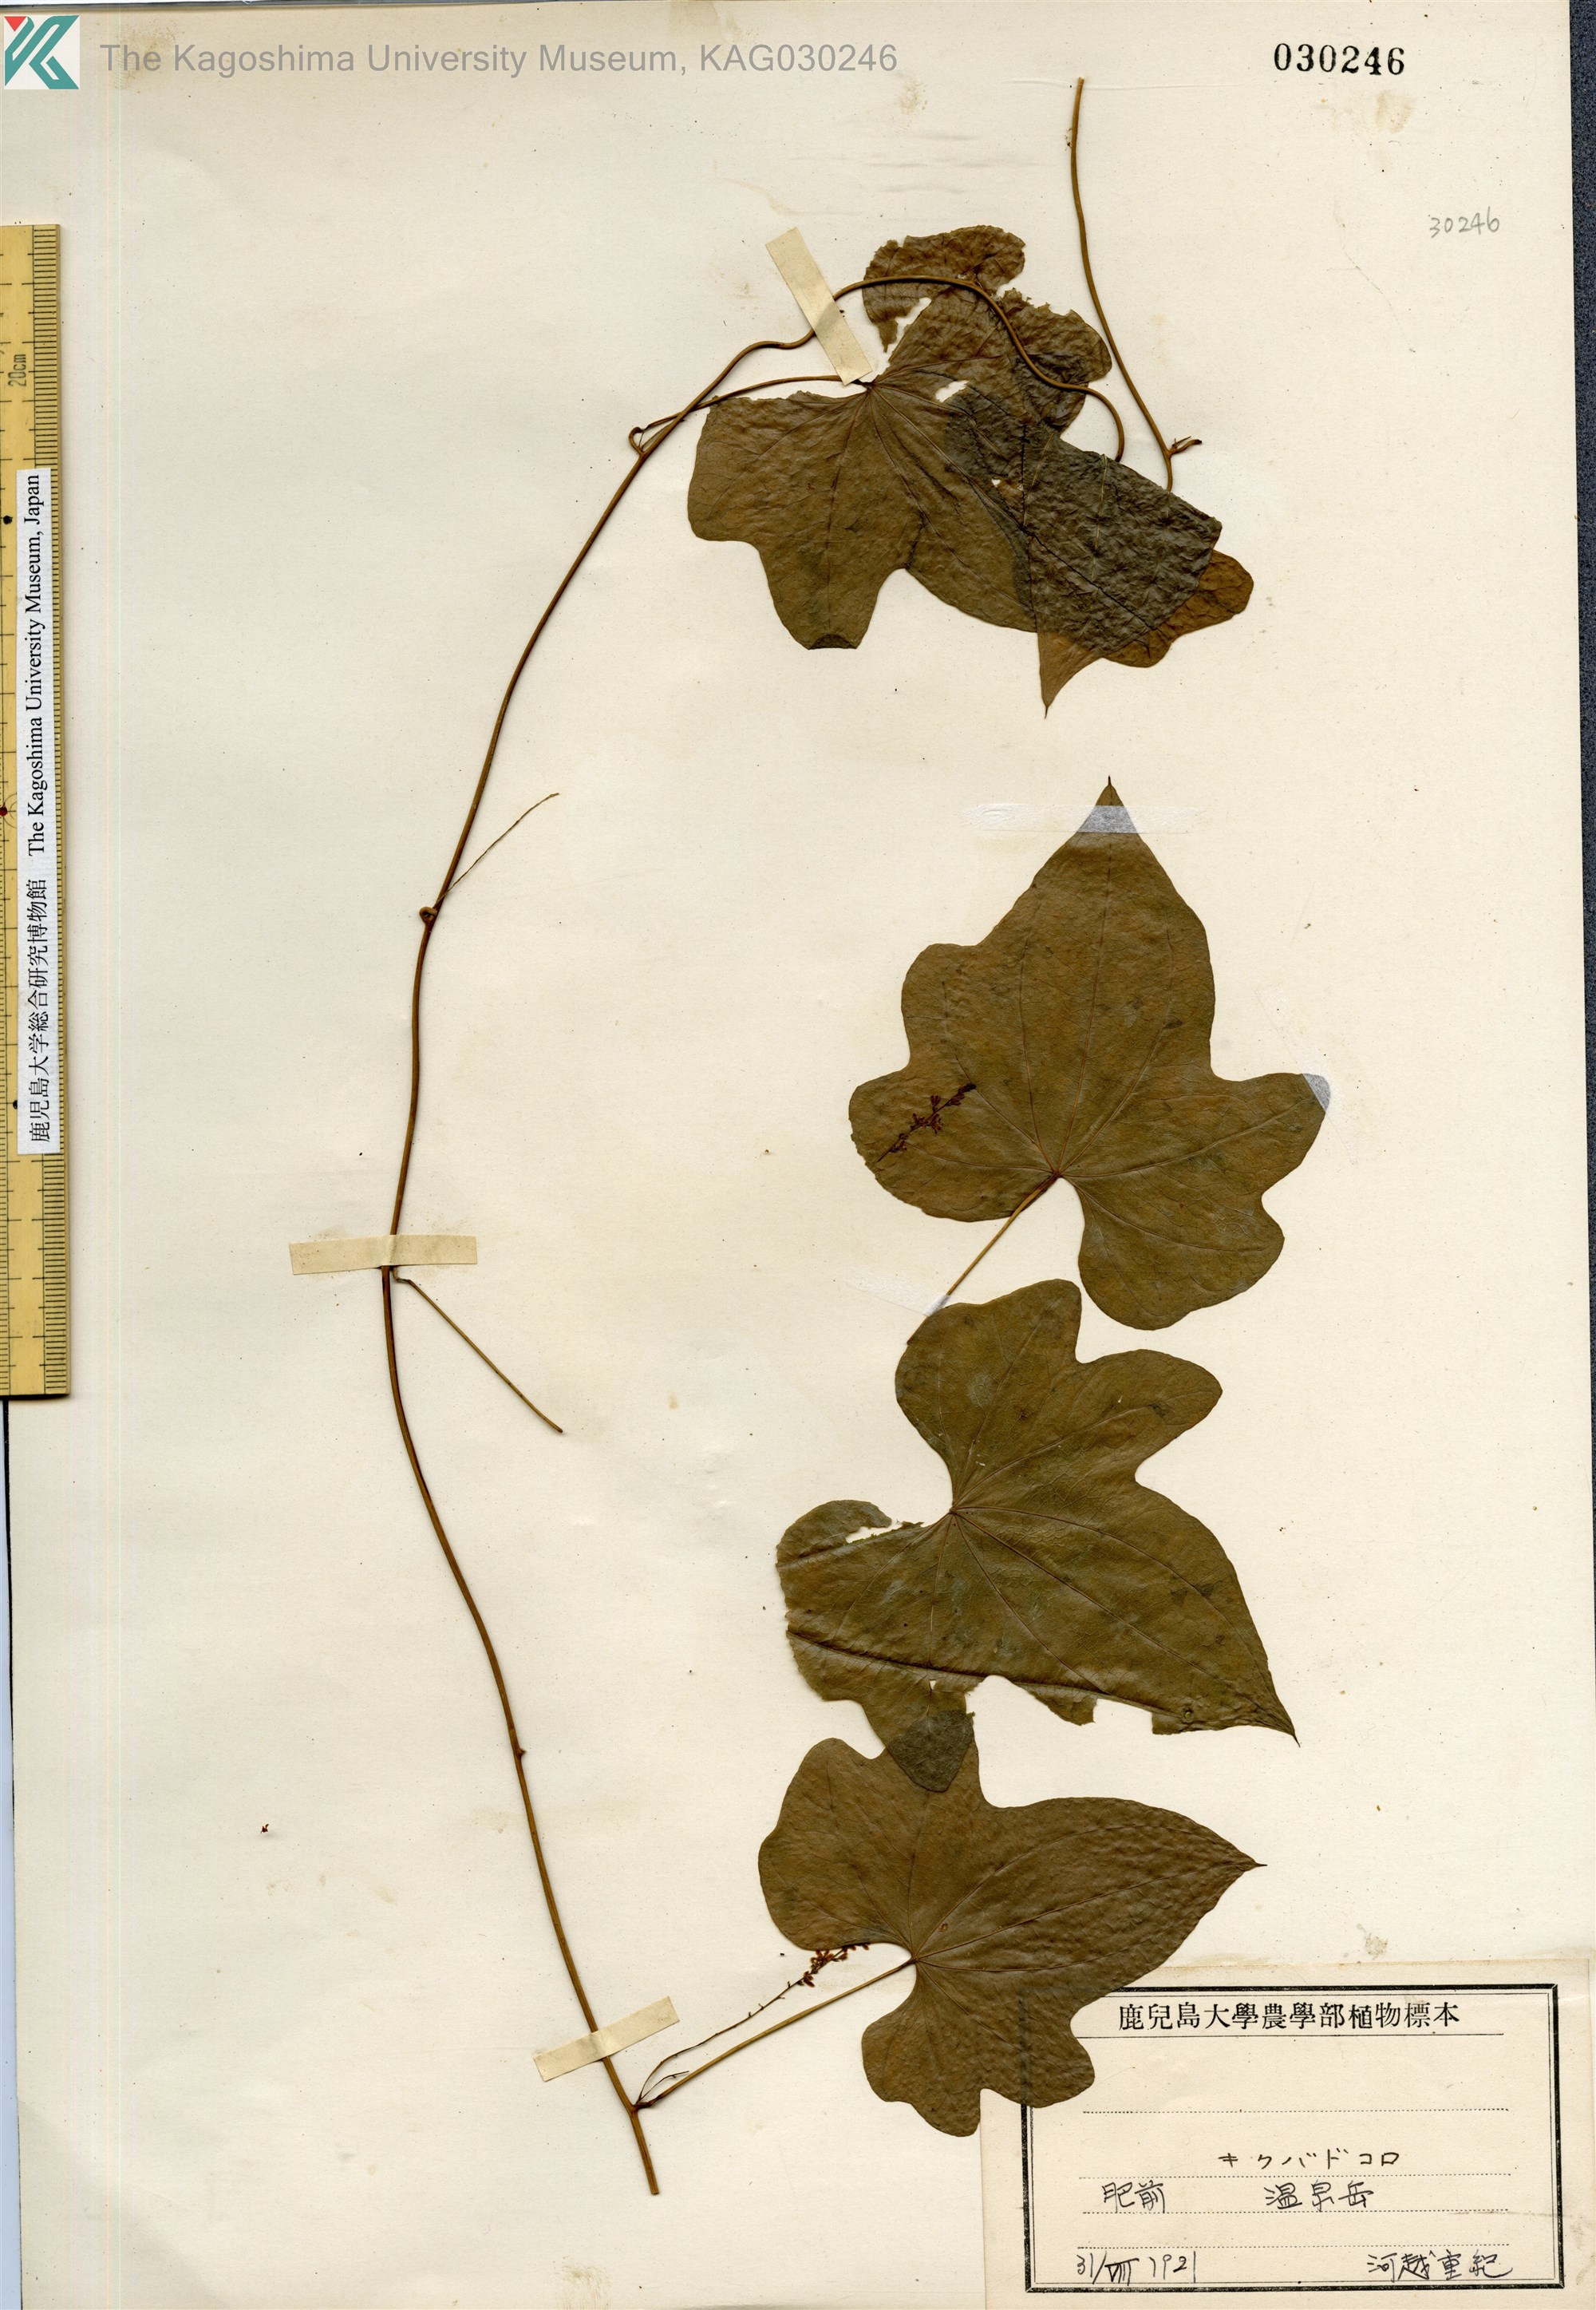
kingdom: Plantae
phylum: Tracheophyta
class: Liliopsida
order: Dioscoreales
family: Dioscoreaceae
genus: Dioscorea
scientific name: Dioscorea septemloba
